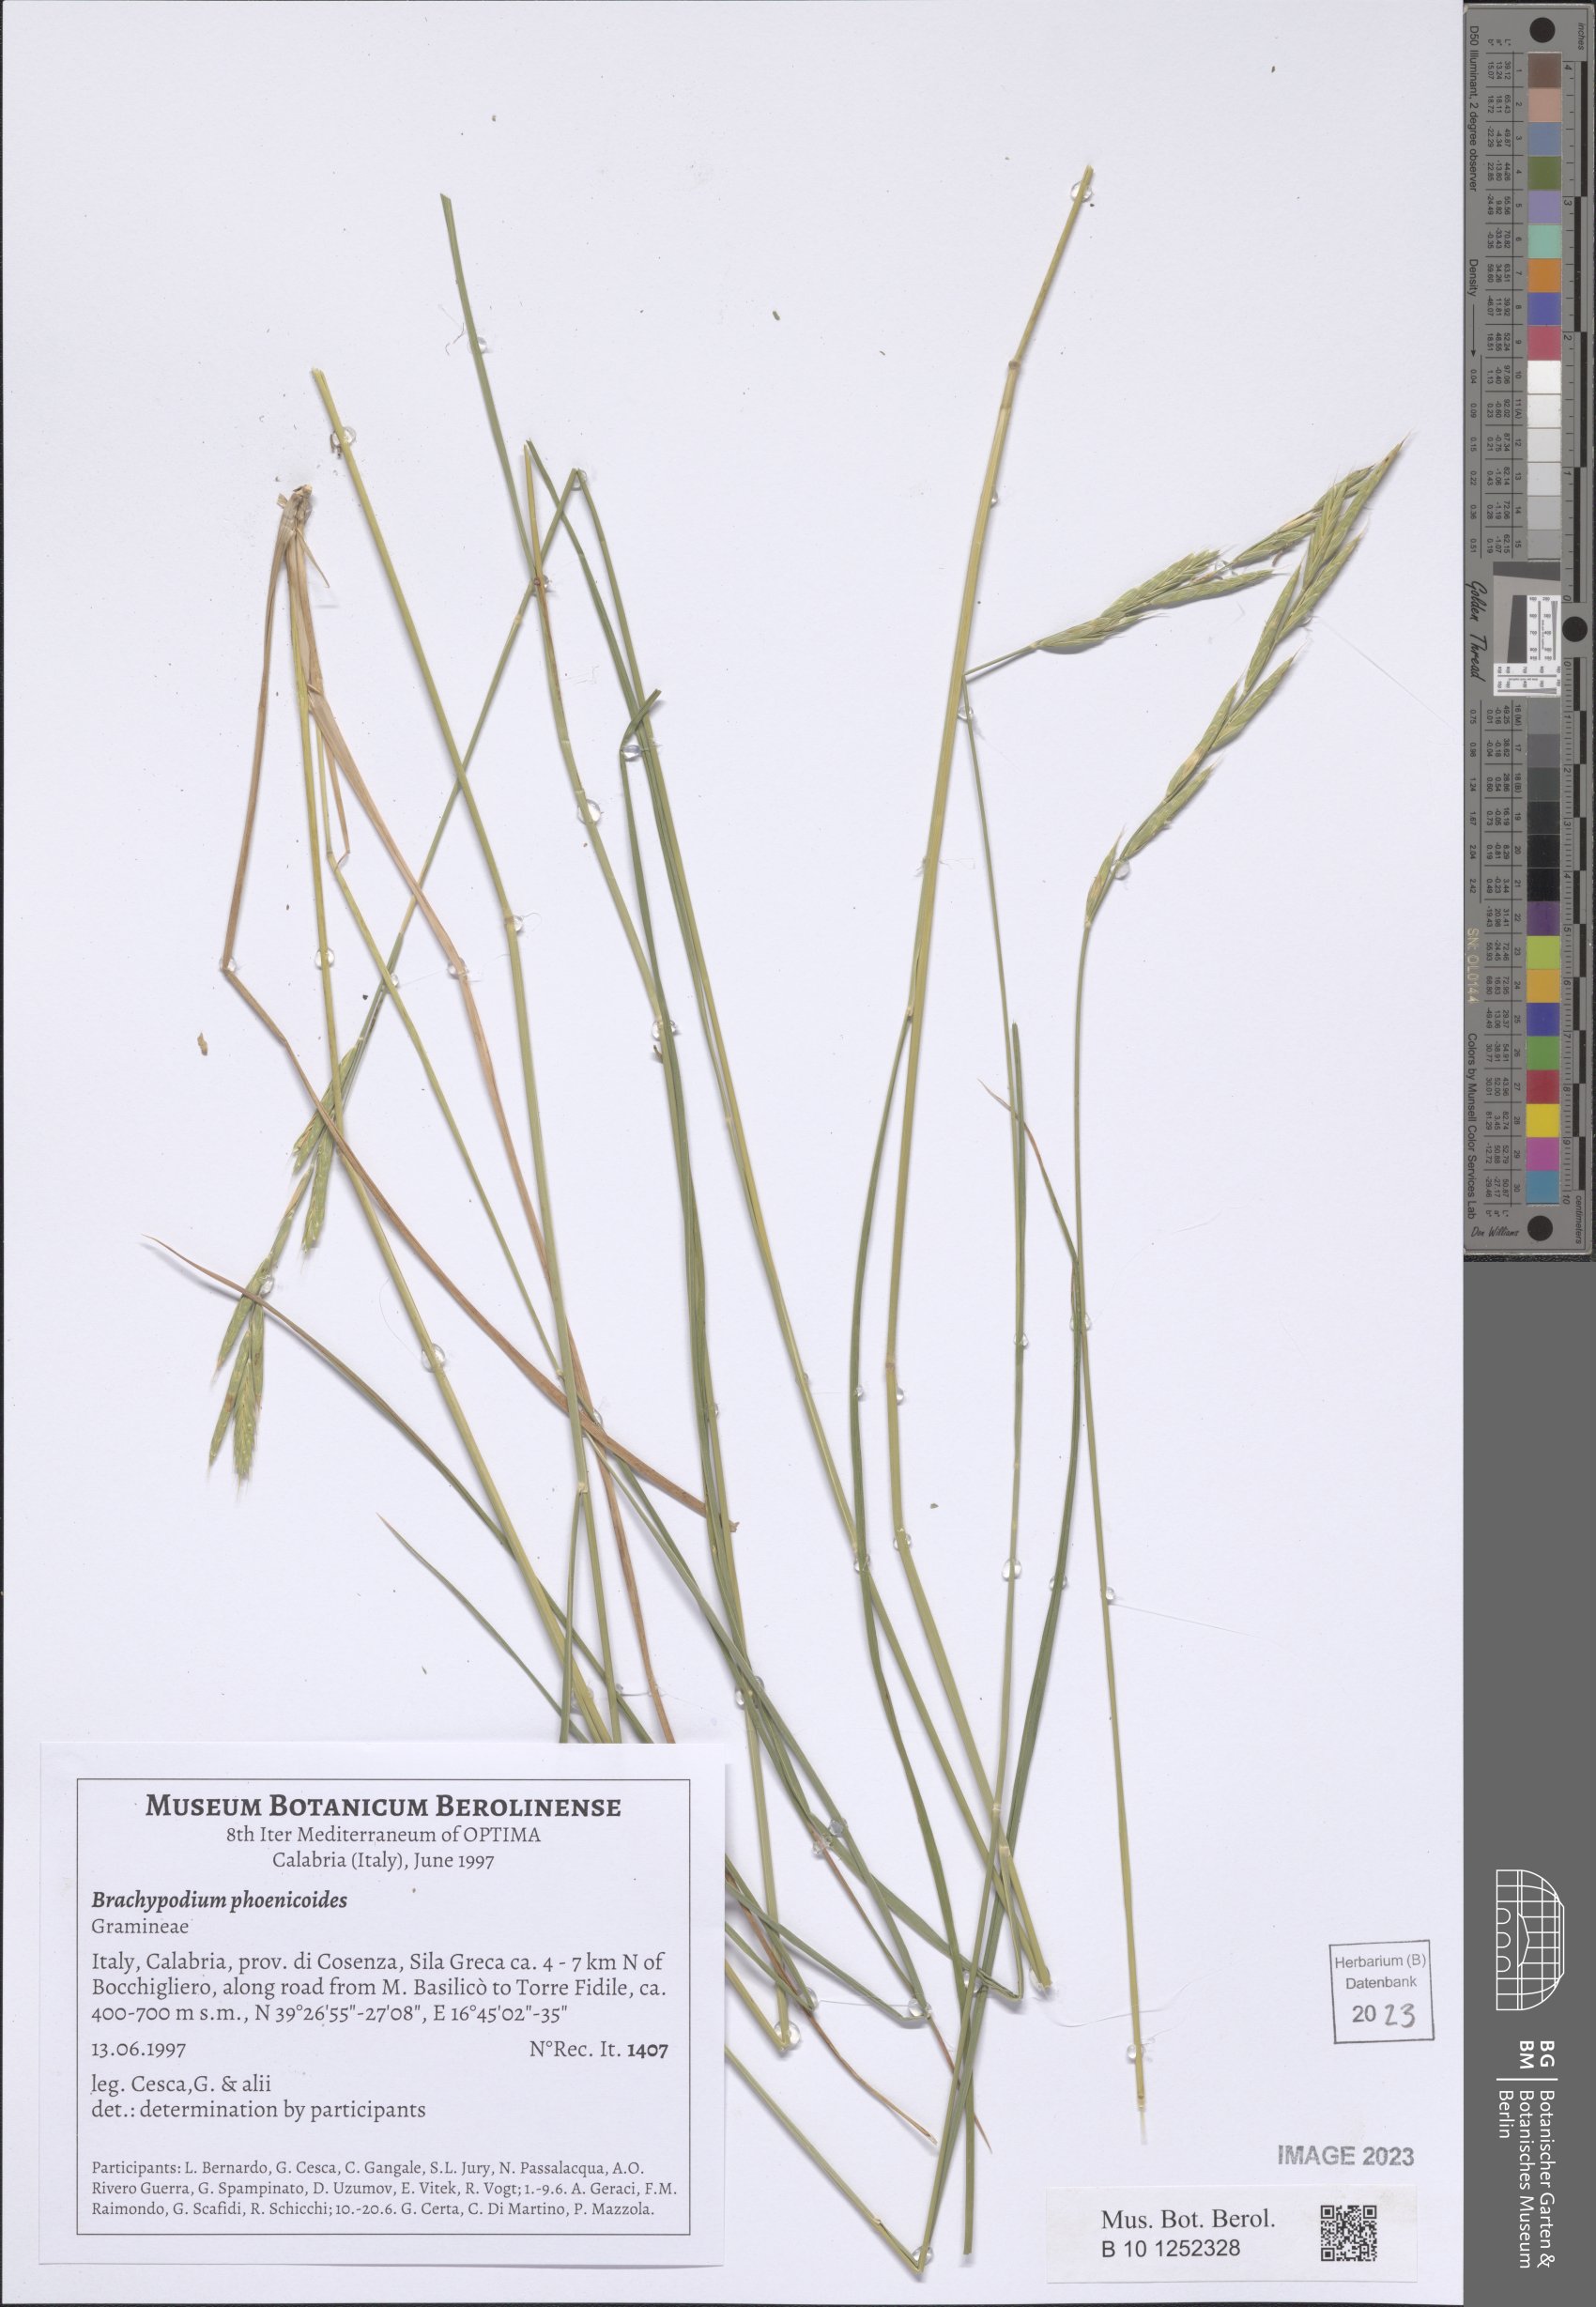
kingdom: Plantae
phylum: Tracheophyta
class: Liliopsida
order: Poales
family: Poaceae
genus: Brachypodium
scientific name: Brachypodium phoenicoides
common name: Thinleaf false brome
